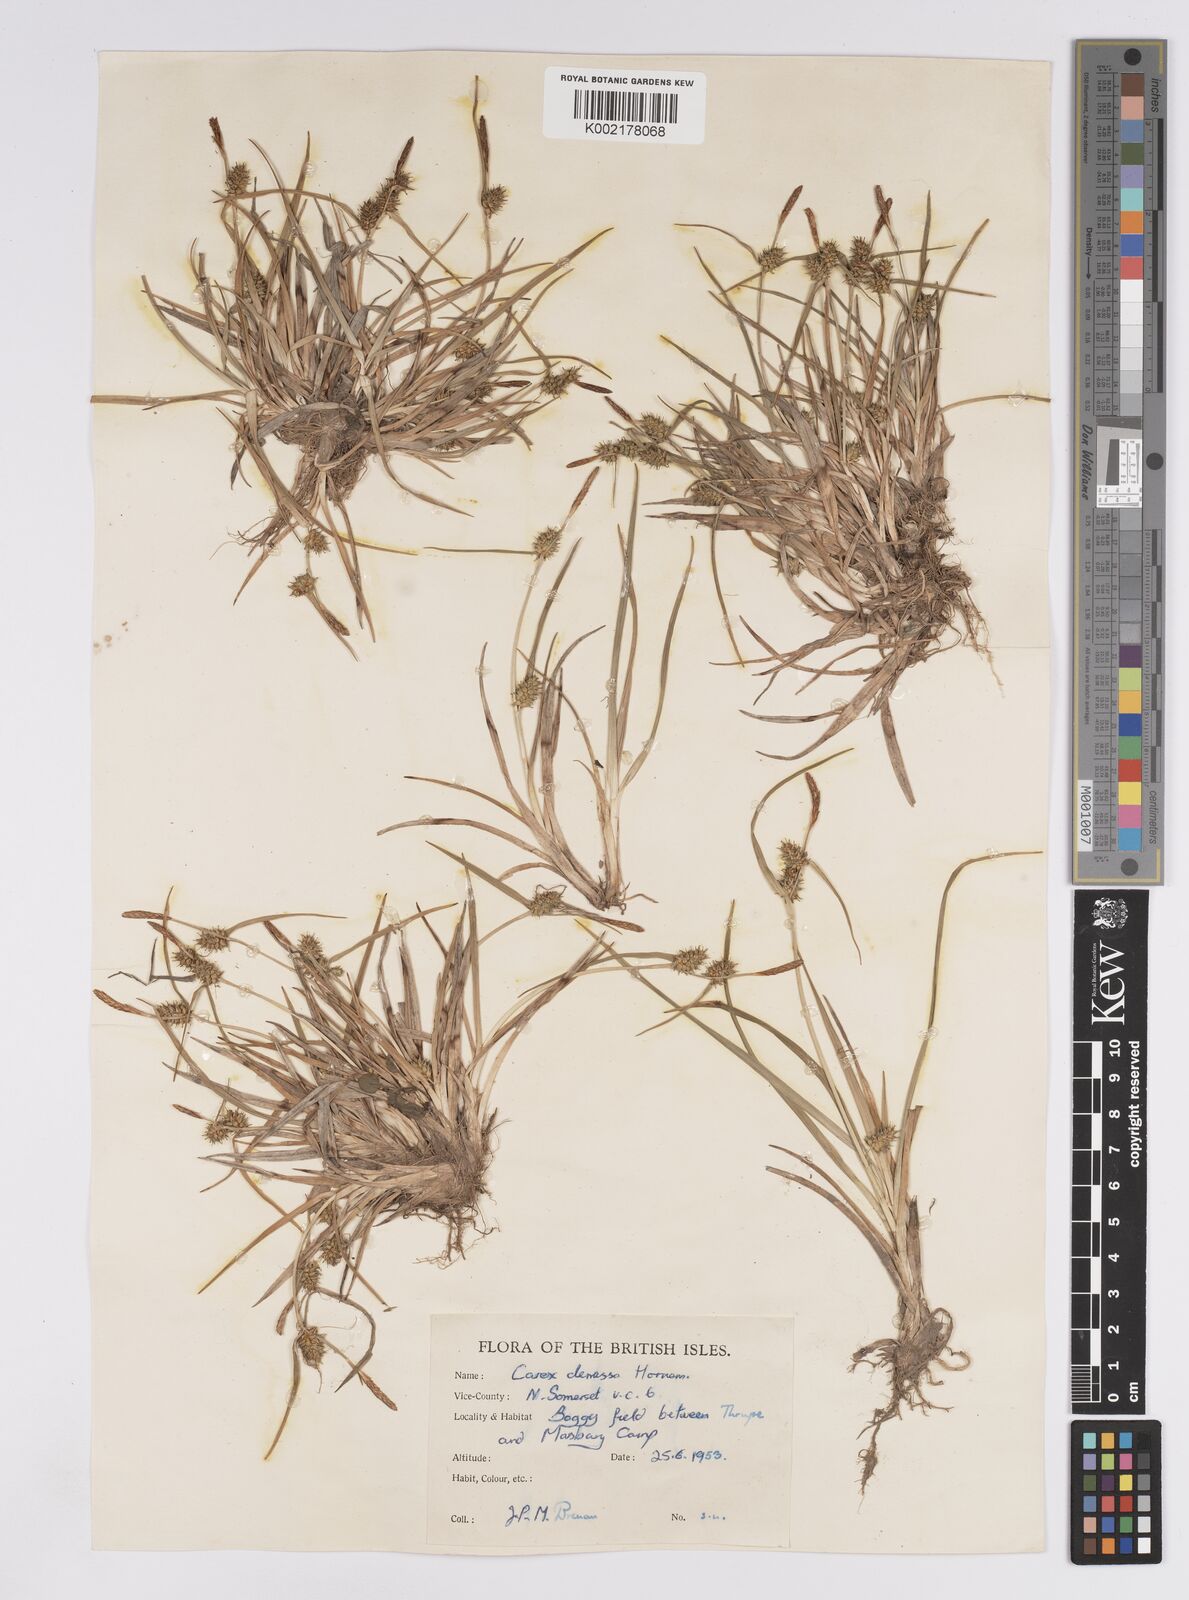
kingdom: Plantae
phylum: Tracheophyta
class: Liliopsida
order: Poales
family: Cyperaceae
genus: Carex
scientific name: Carex demissa
